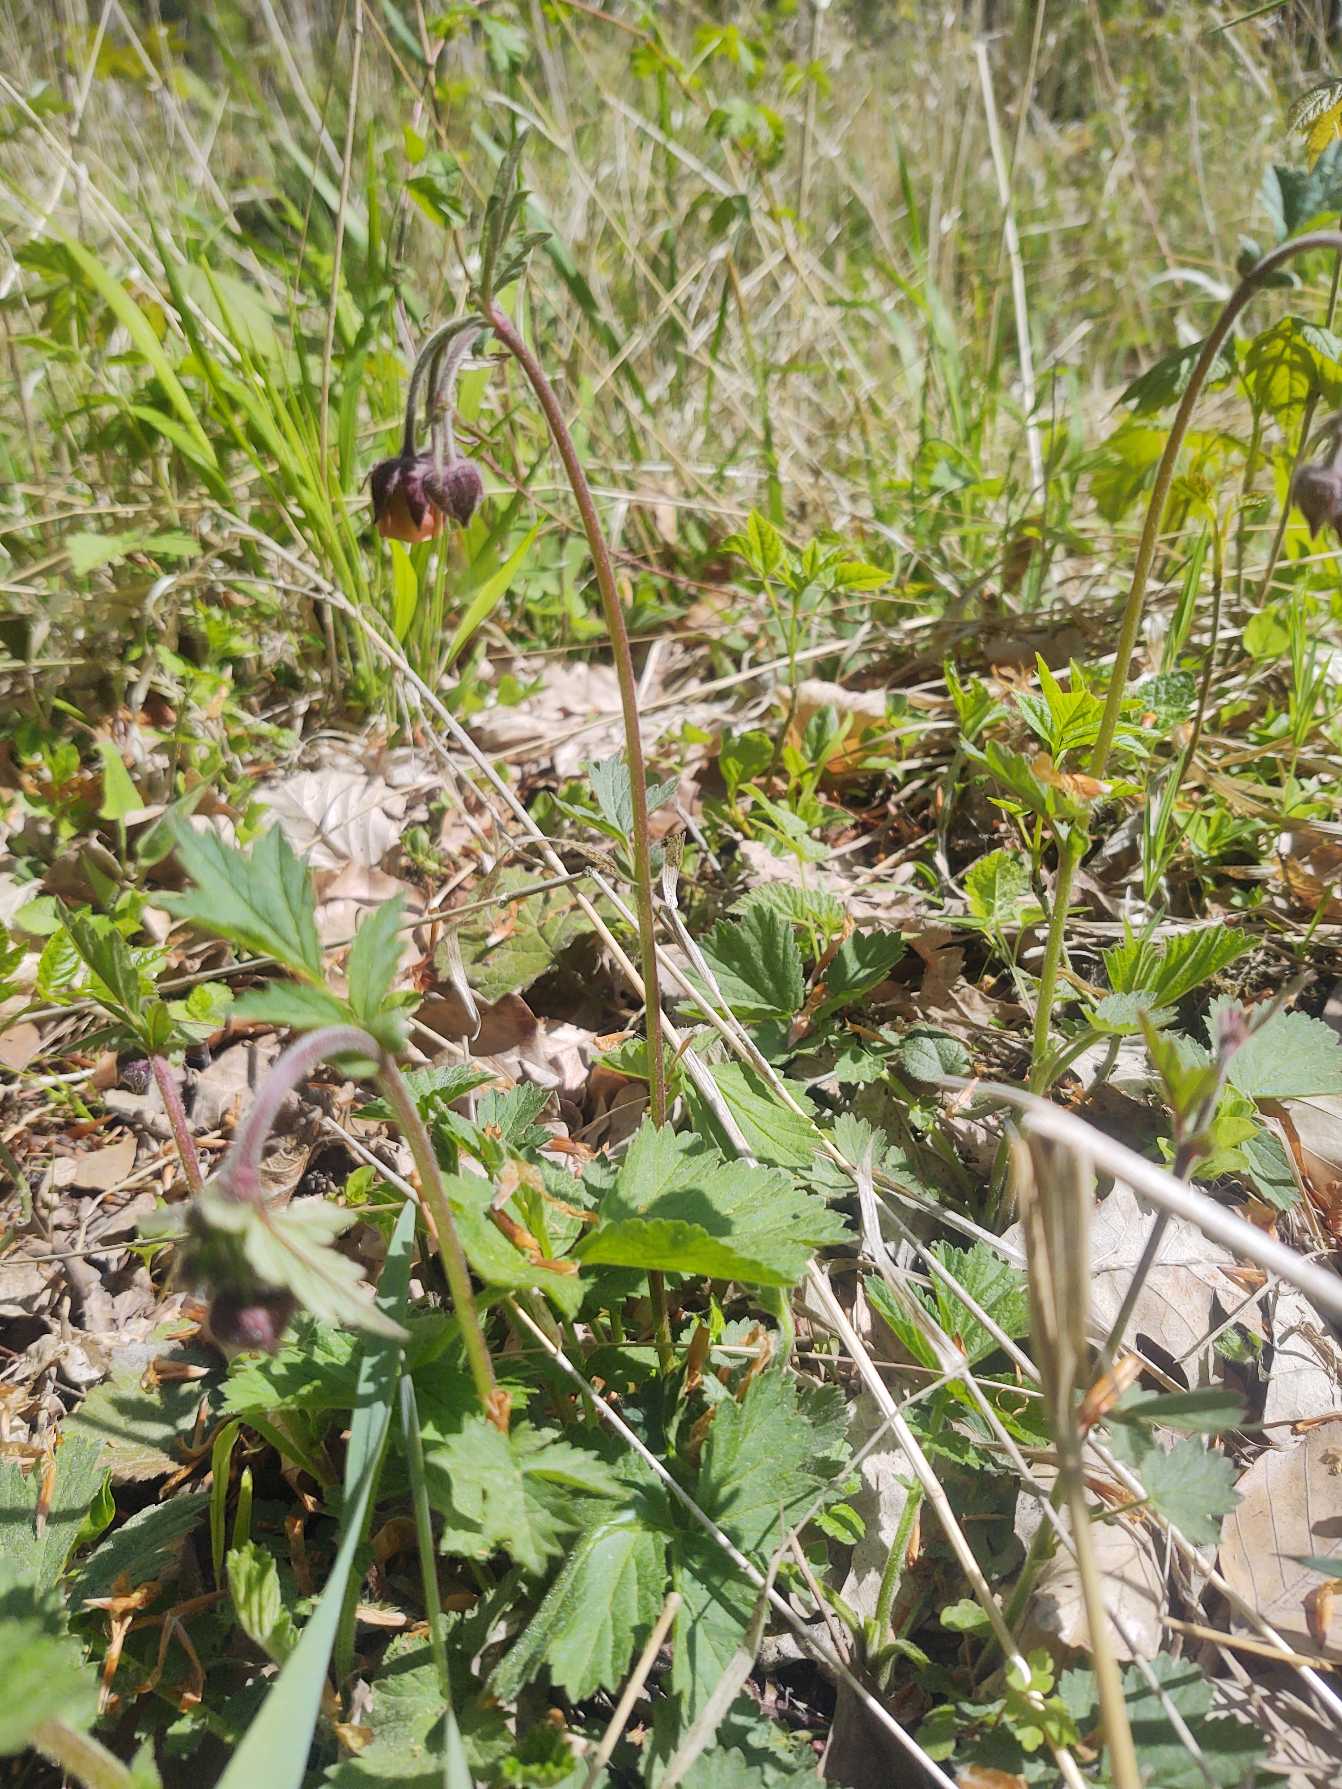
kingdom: Plantae
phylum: Tracheophyta
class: Magnoliopsida
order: Rosales
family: Rosaceae
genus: Geum
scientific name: Geum rivale
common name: Eng-nellikerod
